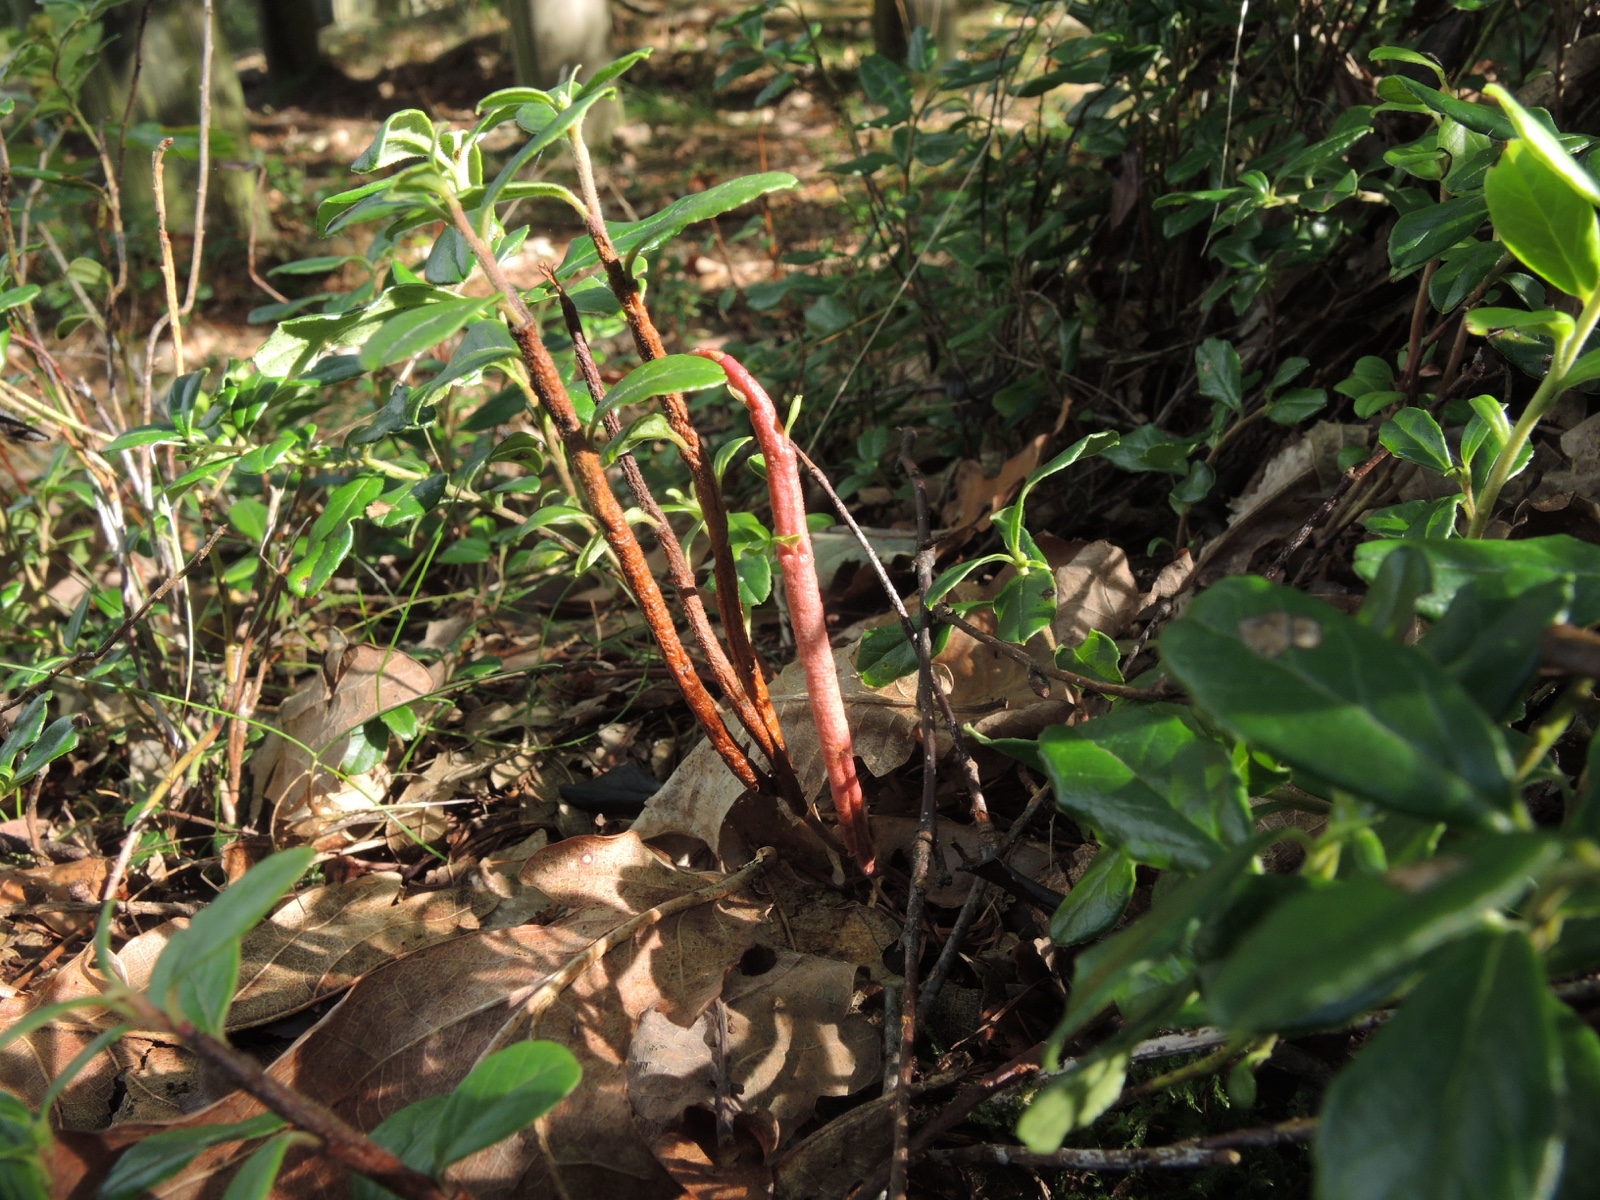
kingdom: Fungi
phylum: Basidiomycota
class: Pucciniomycetes
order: Pucciniales
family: Pucciniastraceae
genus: Calyptospora
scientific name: Calyptospora columnaris
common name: Huckleberry broom rust fungus
